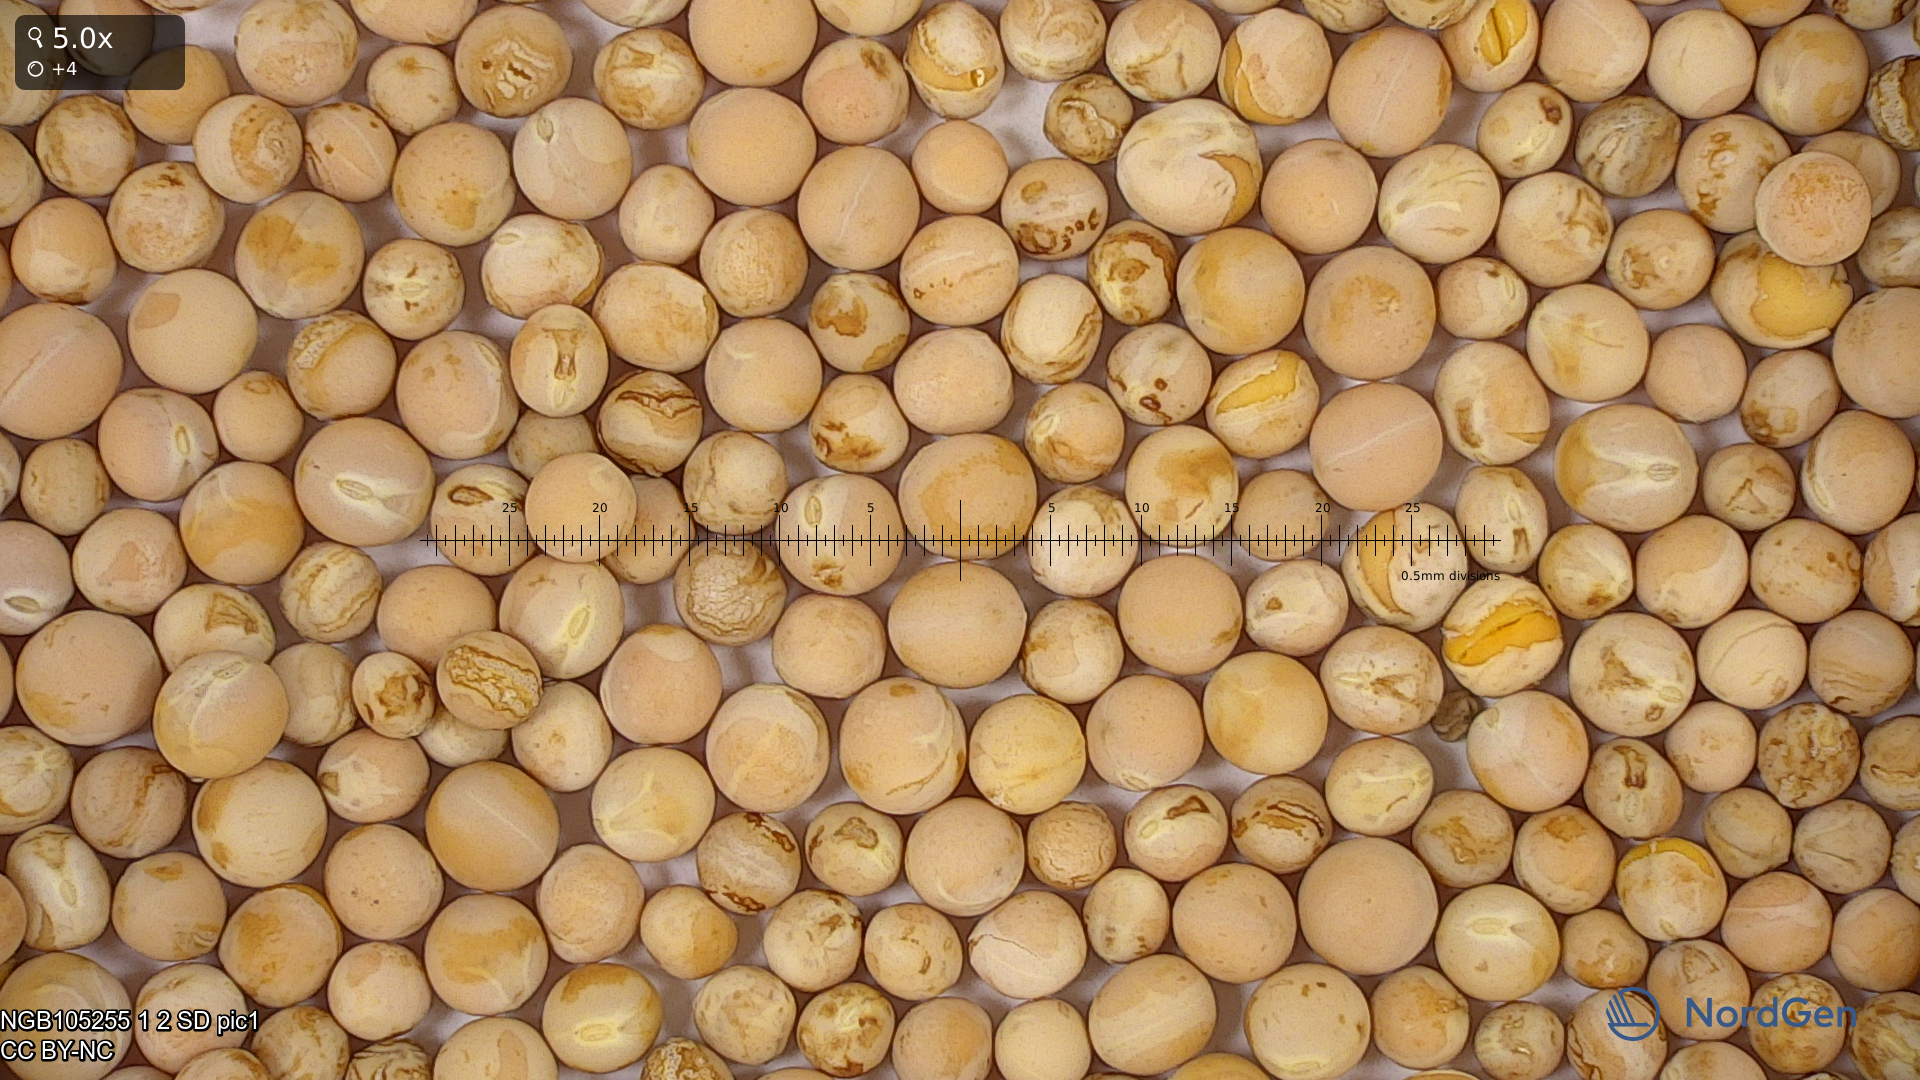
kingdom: Plantae
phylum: Tracheophyta
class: Magnoliopsida
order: Fabales
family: Fabaceae
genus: Lathyrus
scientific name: Lathyrus oleraceus
